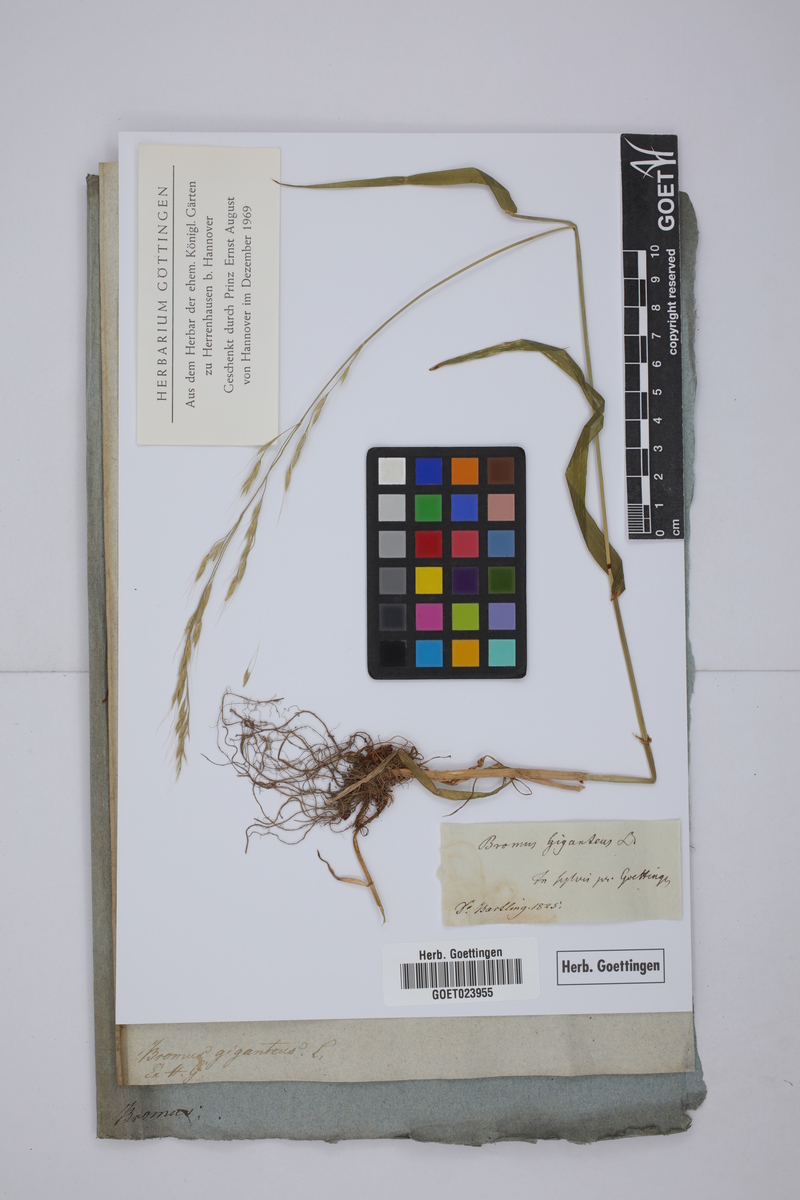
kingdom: Plantae
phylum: Tracheophyta
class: Liliopsida
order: Poales
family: Poaceae
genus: Lolium
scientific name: Lolium giganteum
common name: Giant fescue
